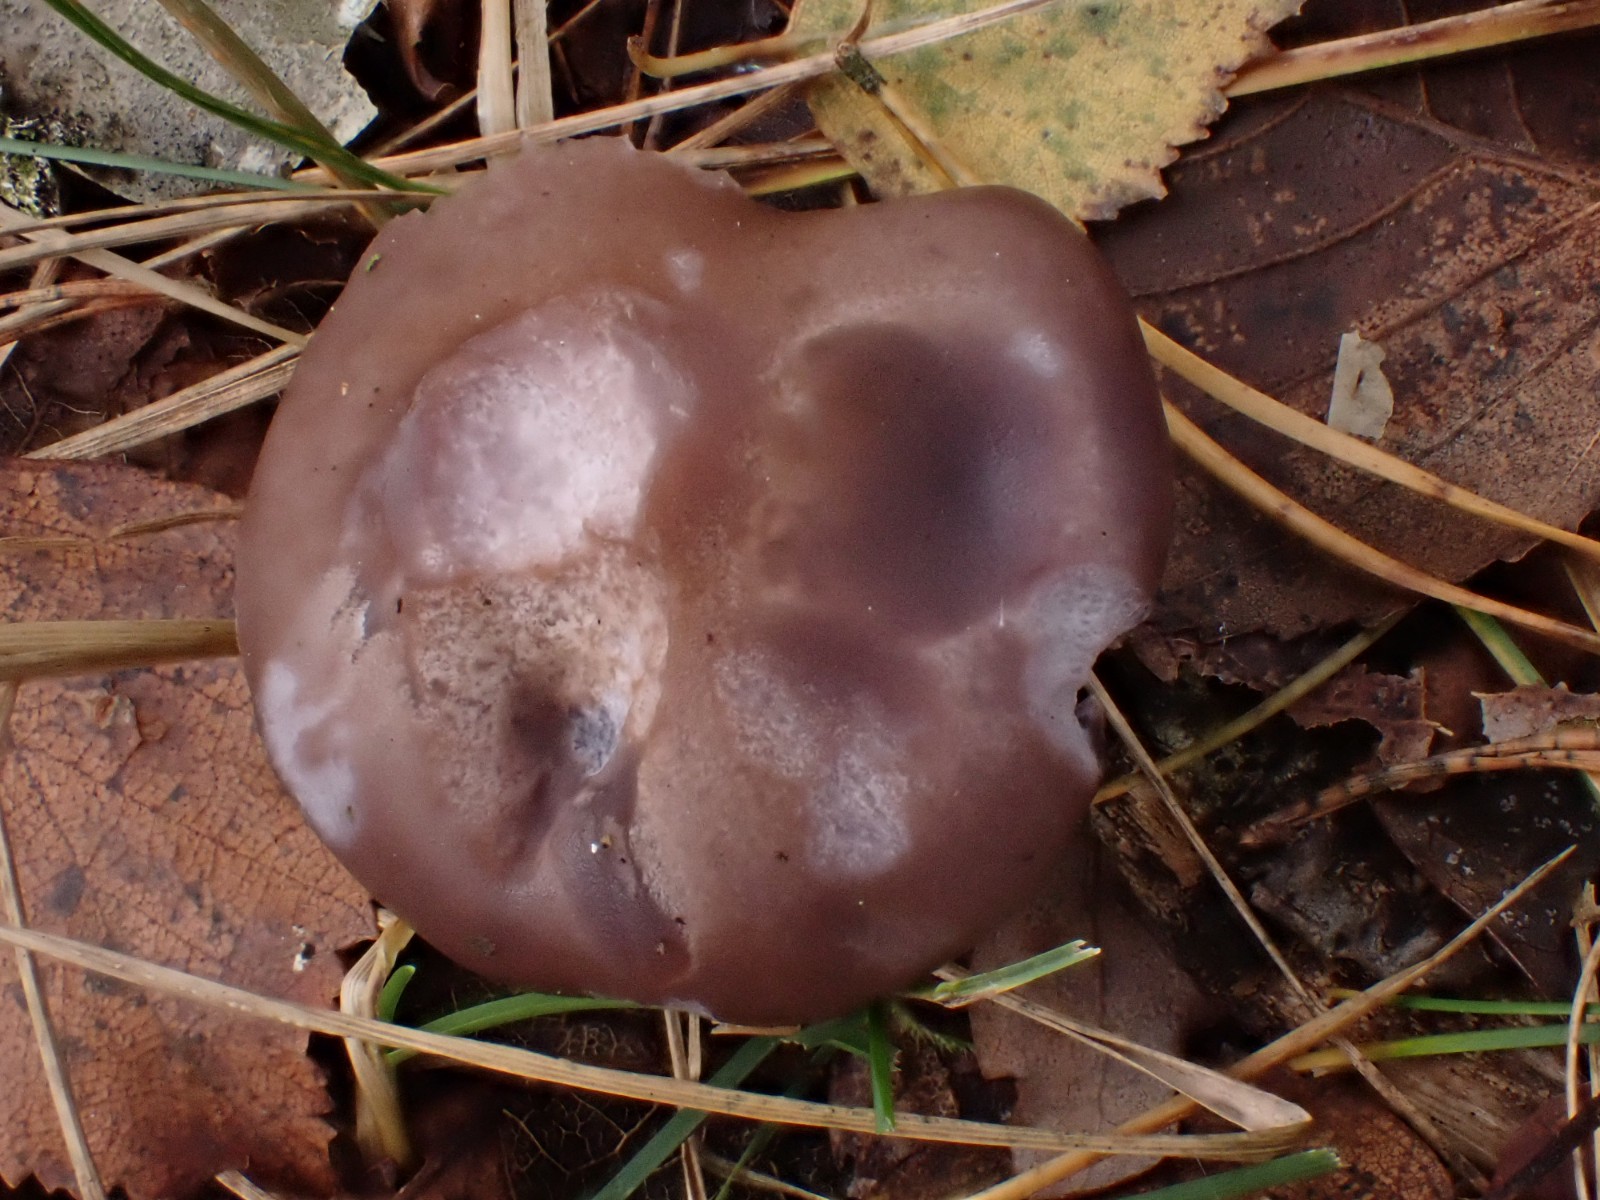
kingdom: Fungi
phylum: Basidiomycota
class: Agaricomycetes
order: Agaricales
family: Tricholomataceae
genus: Lepista
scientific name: Lepista nuda
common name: violet hekseringshat
